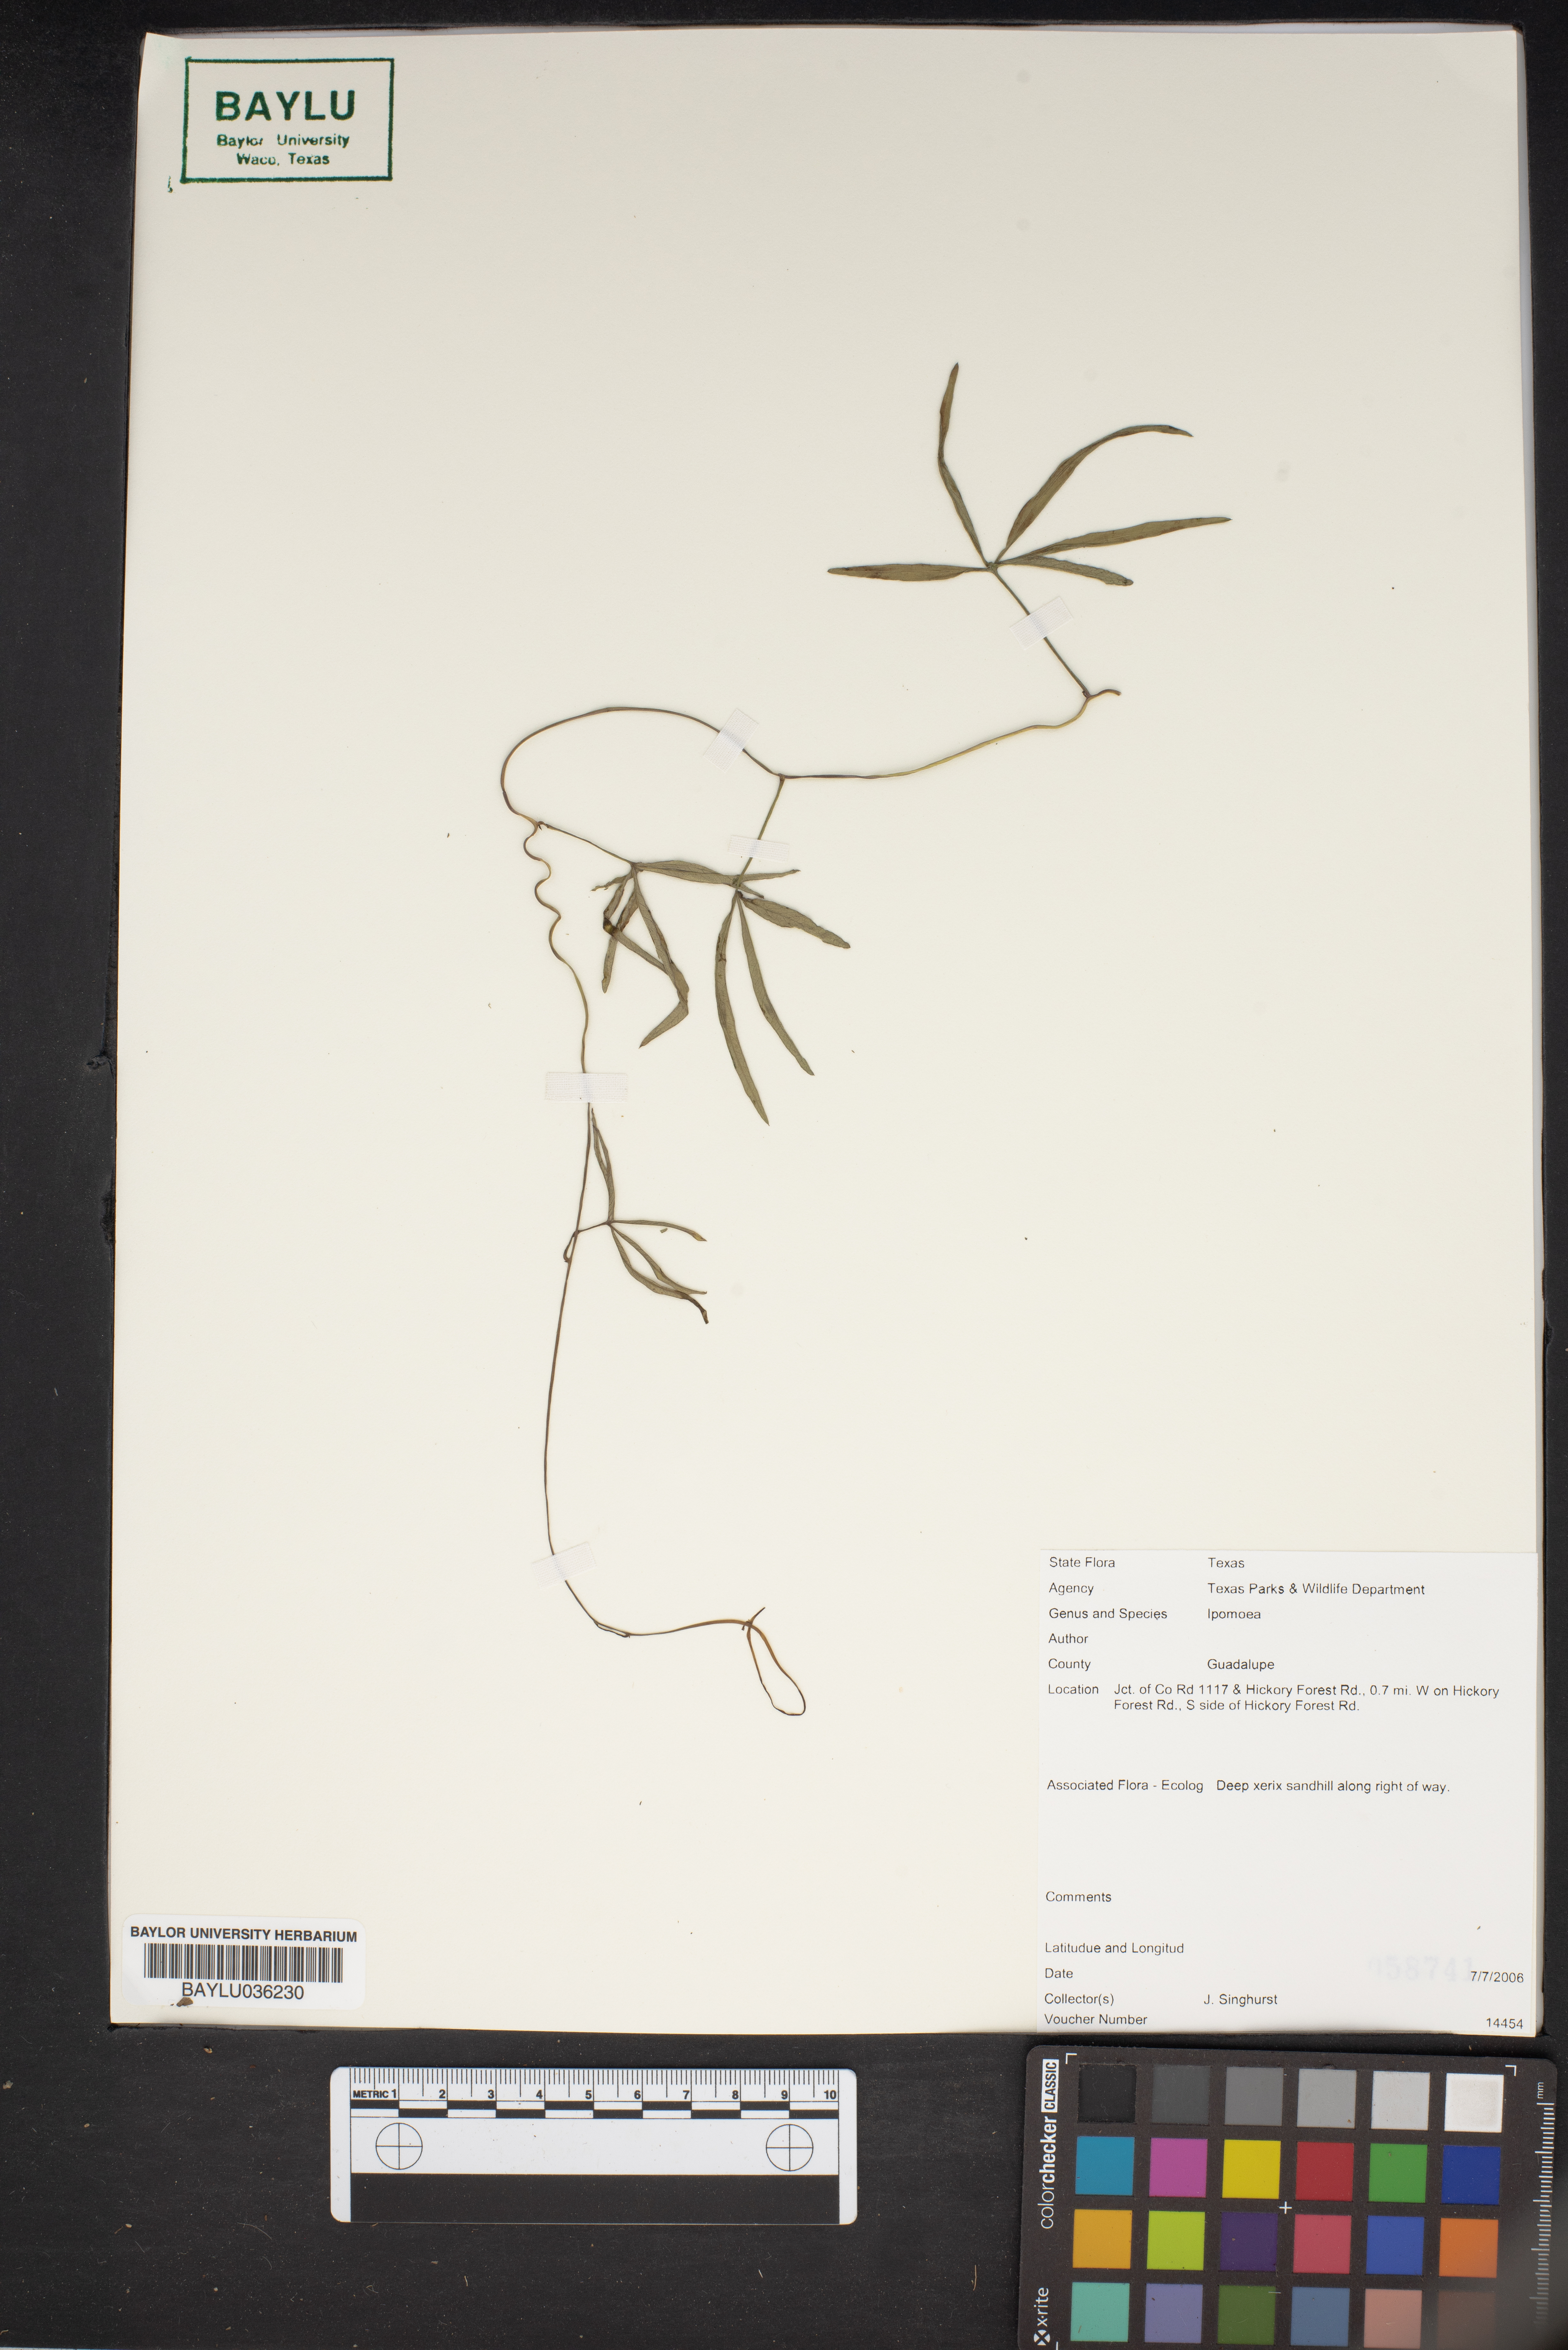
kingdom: Plantae
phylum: Tracheophyta
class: Magnoliopsida
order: Solanales
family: Convolvulaceae
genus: Ipomoea
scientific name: Ipomoea
